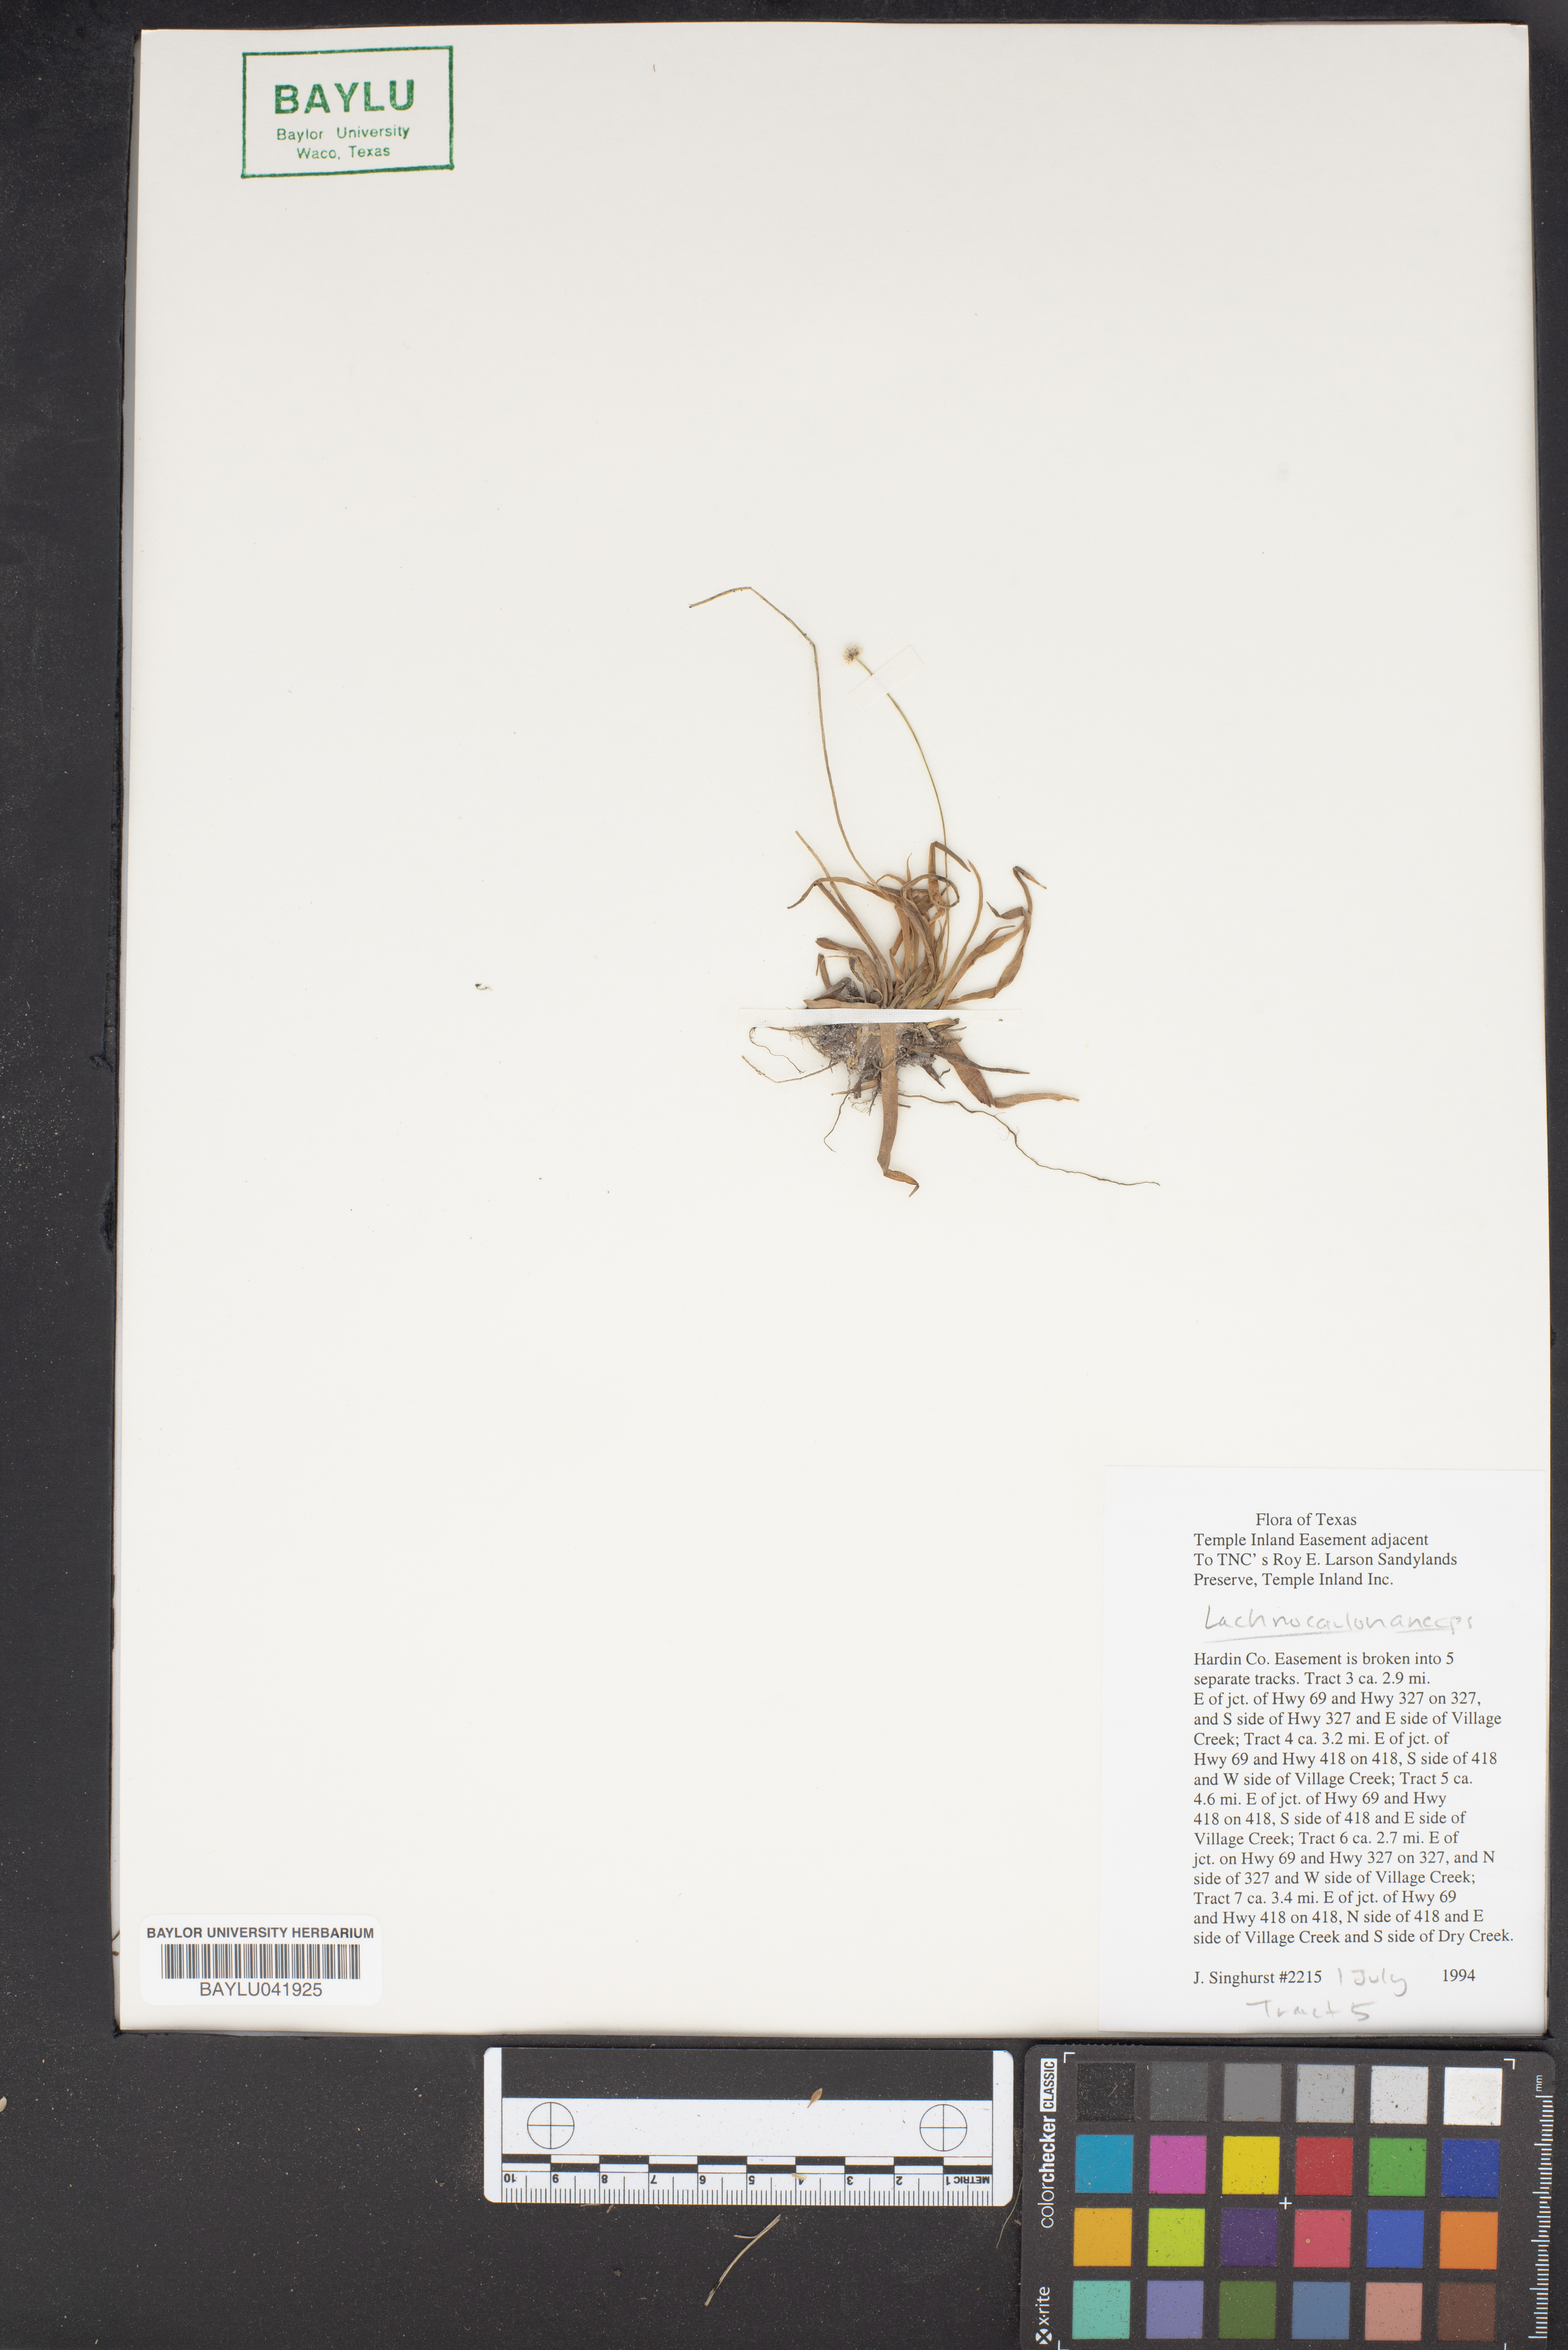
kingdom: Plantae
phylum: Tracheophyta
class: Liliopsida
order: Poales
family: Eriocaulaceae
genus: Paepalanthus
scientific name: Paepalanthus anceps
